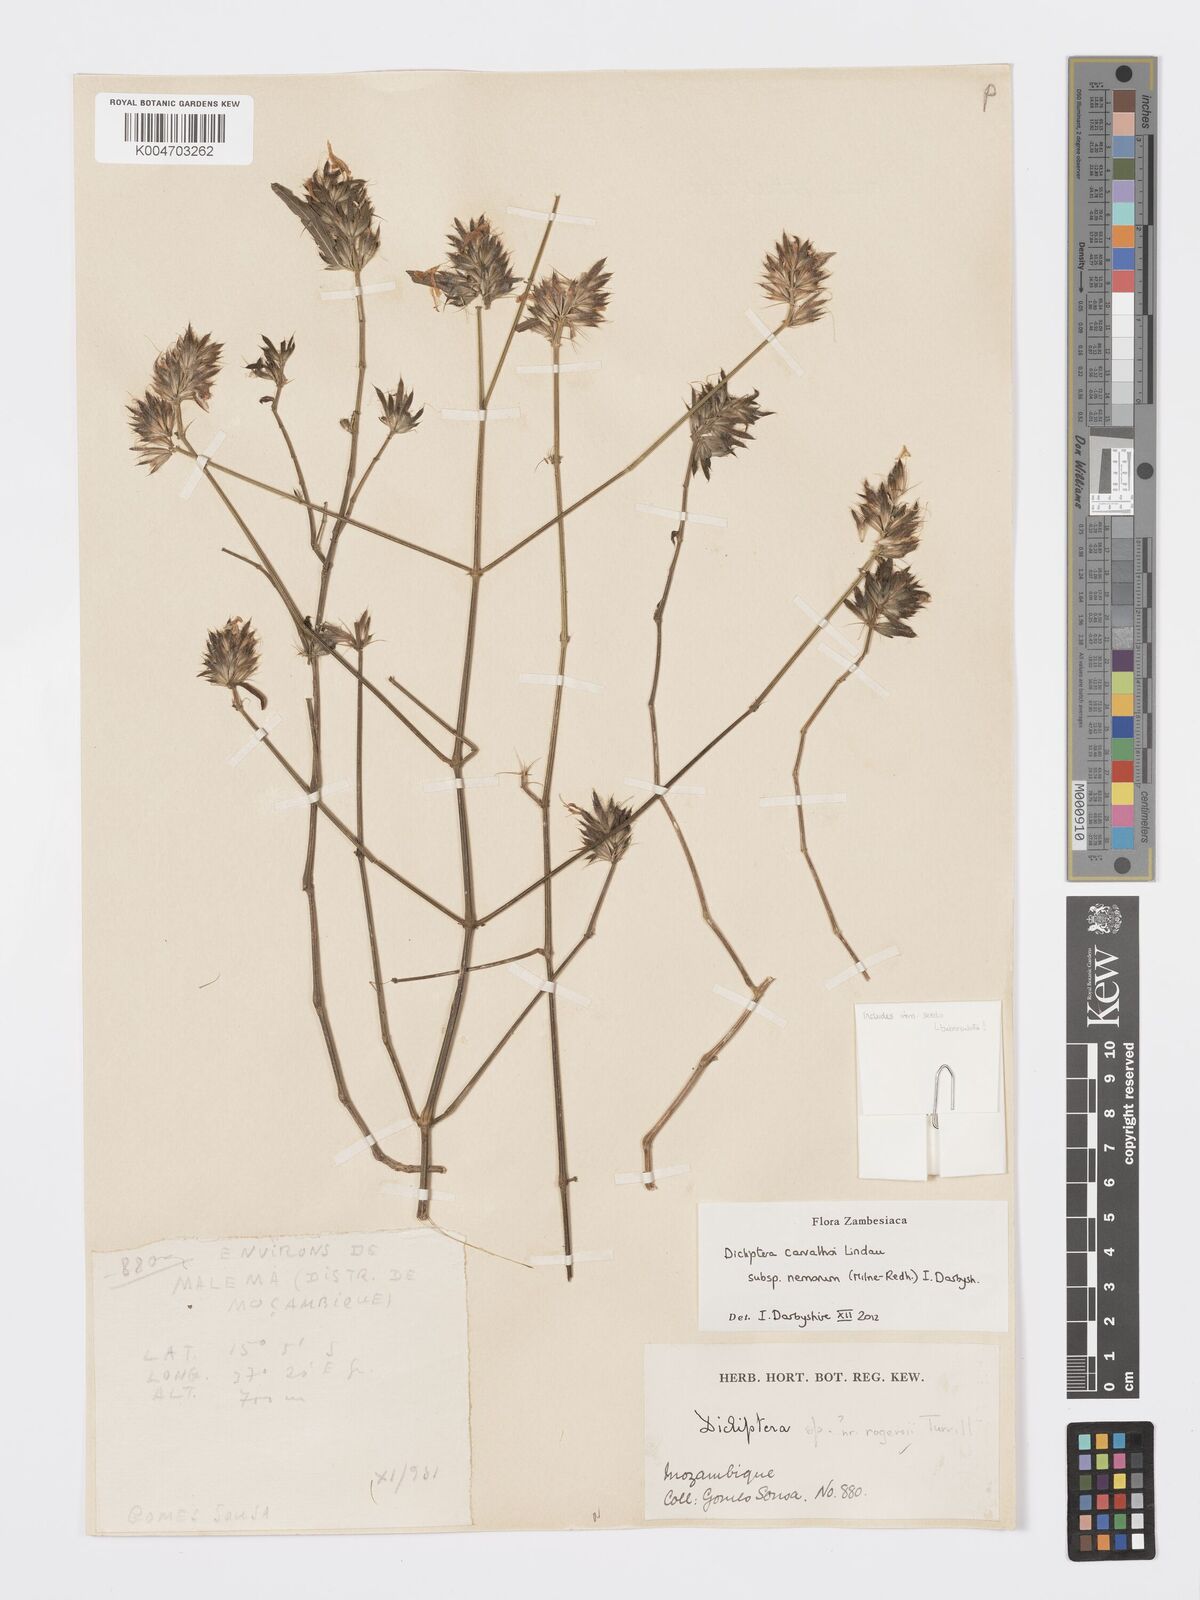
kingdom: Plantae
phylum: Tracheophyta
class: Magnoliopsida
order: Lamiales
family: Acanthaceae
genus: Dicliptera
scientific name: Dicliptera carvalhoi
